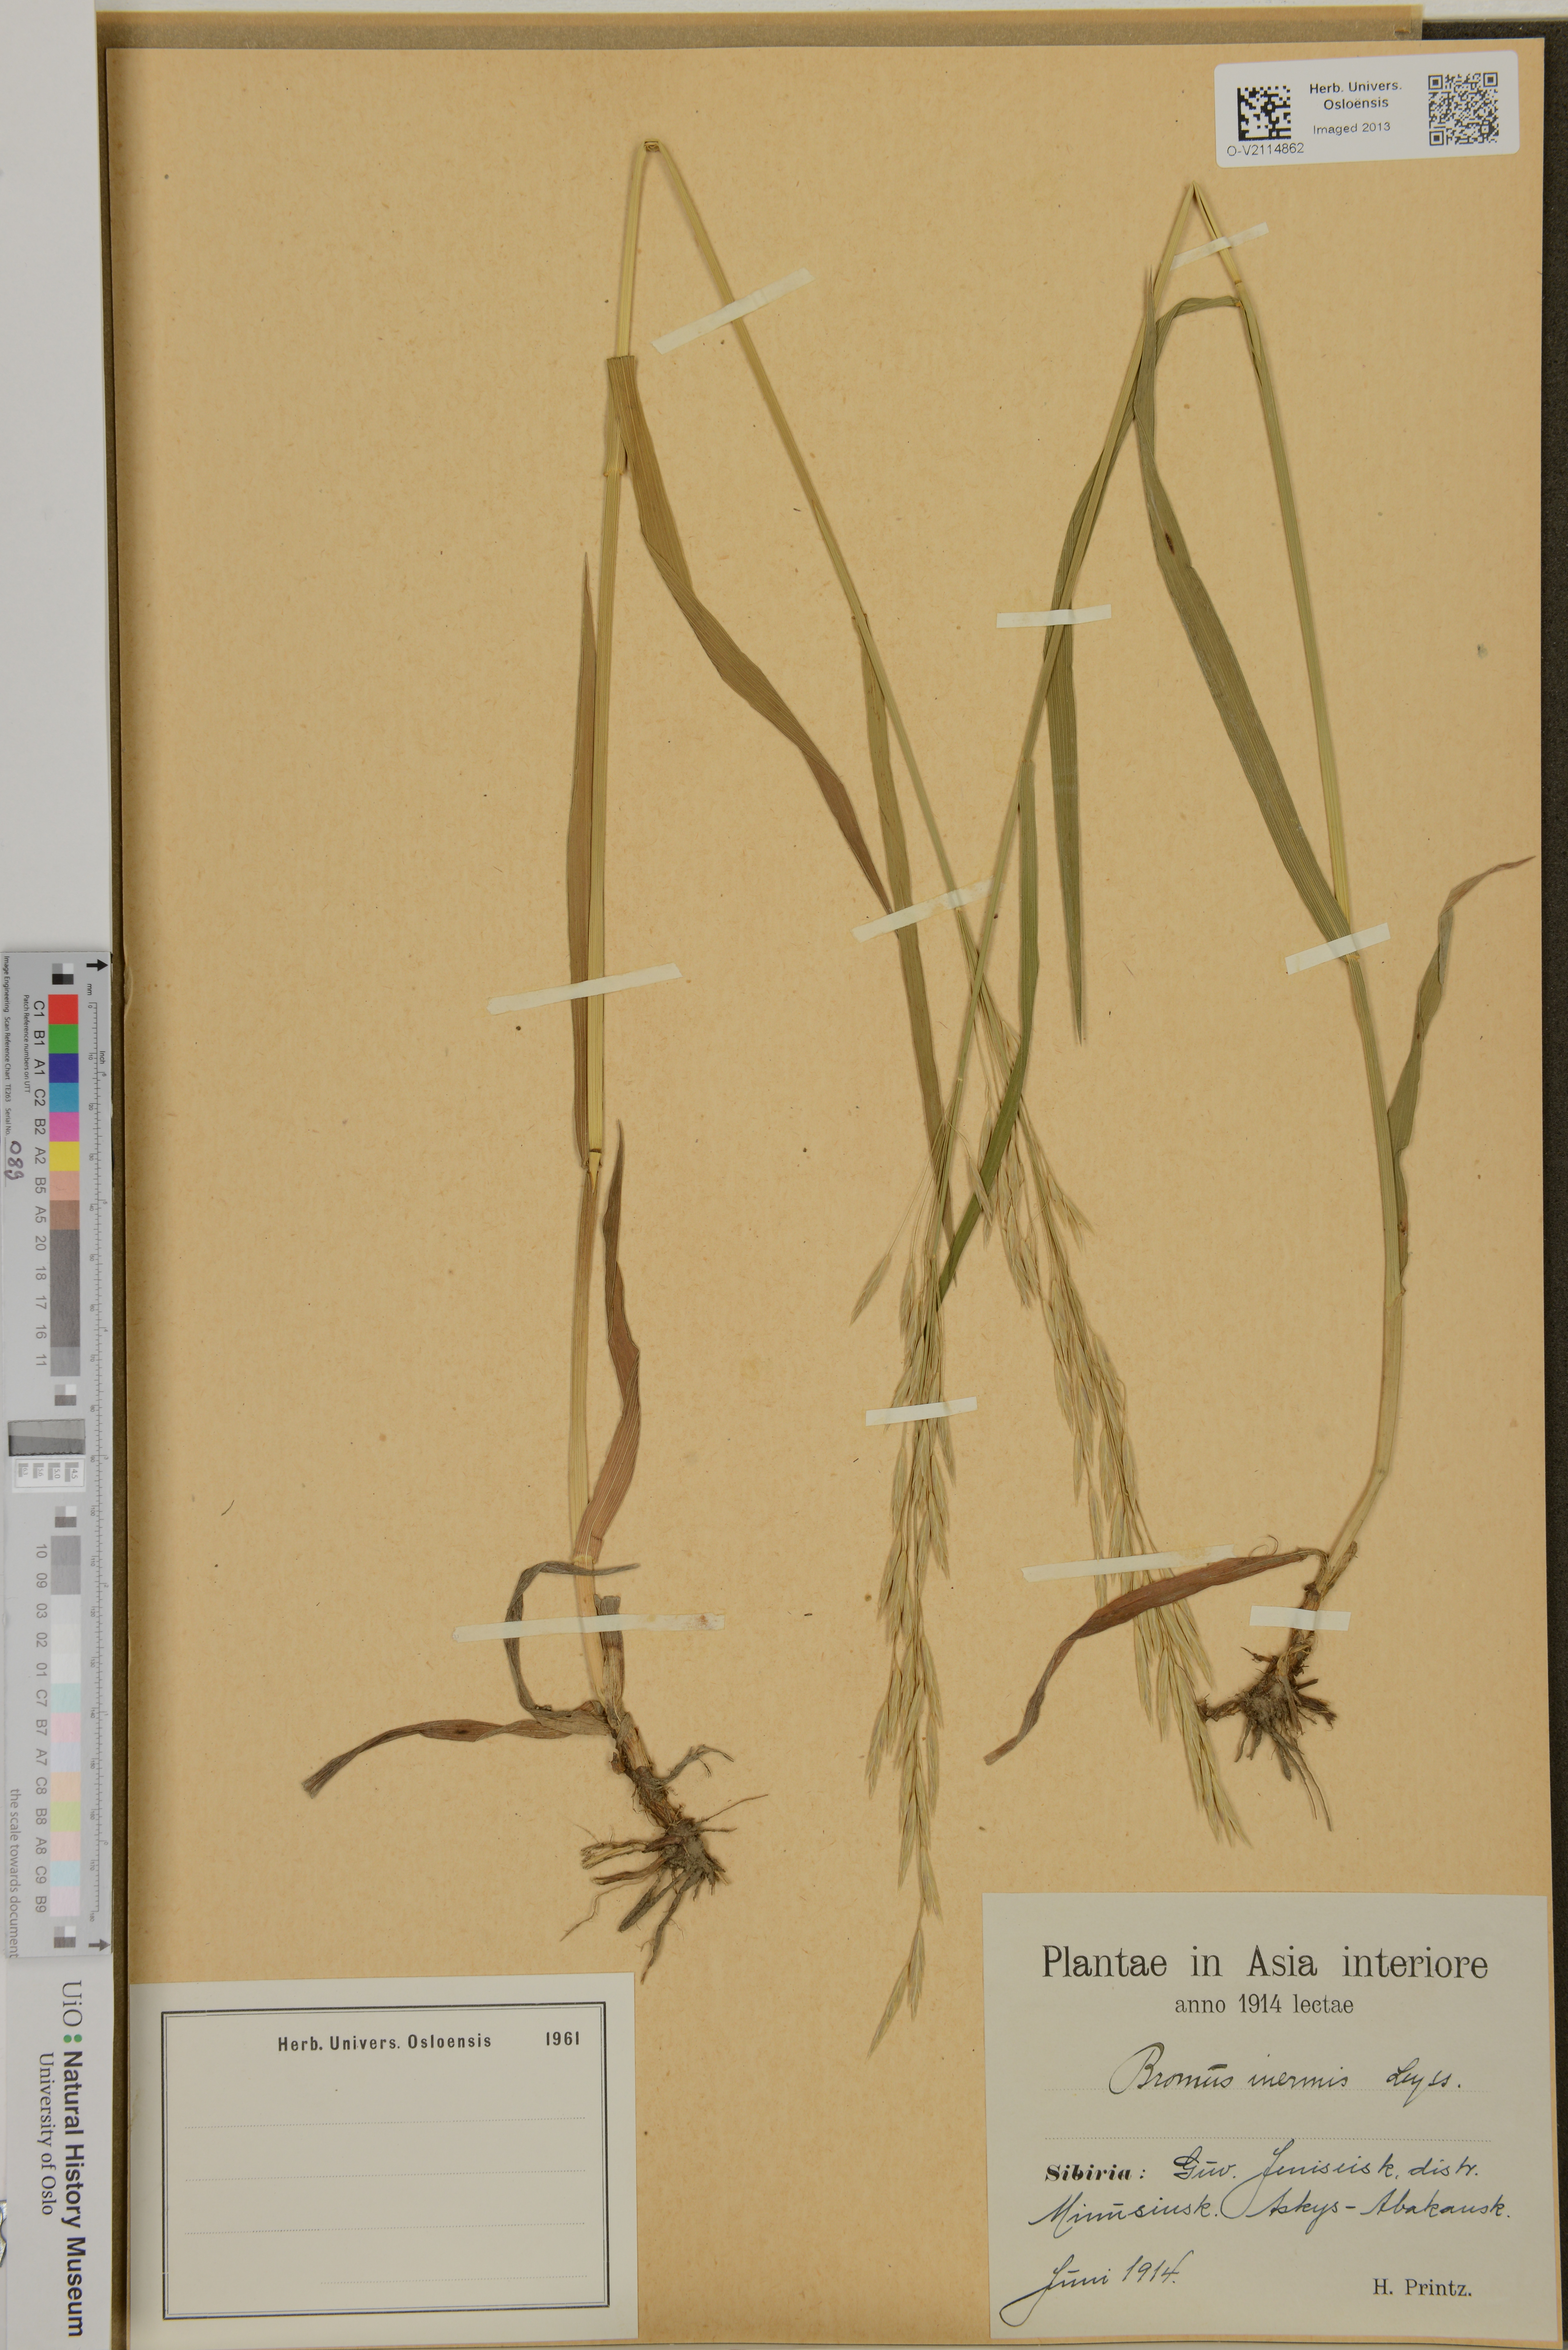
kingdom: Plantae
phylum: Tracheophyta
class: Liliopsida
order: Poales
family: Poaceae
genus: Bromus
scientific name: Bromus inermis
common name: Smooth brome
